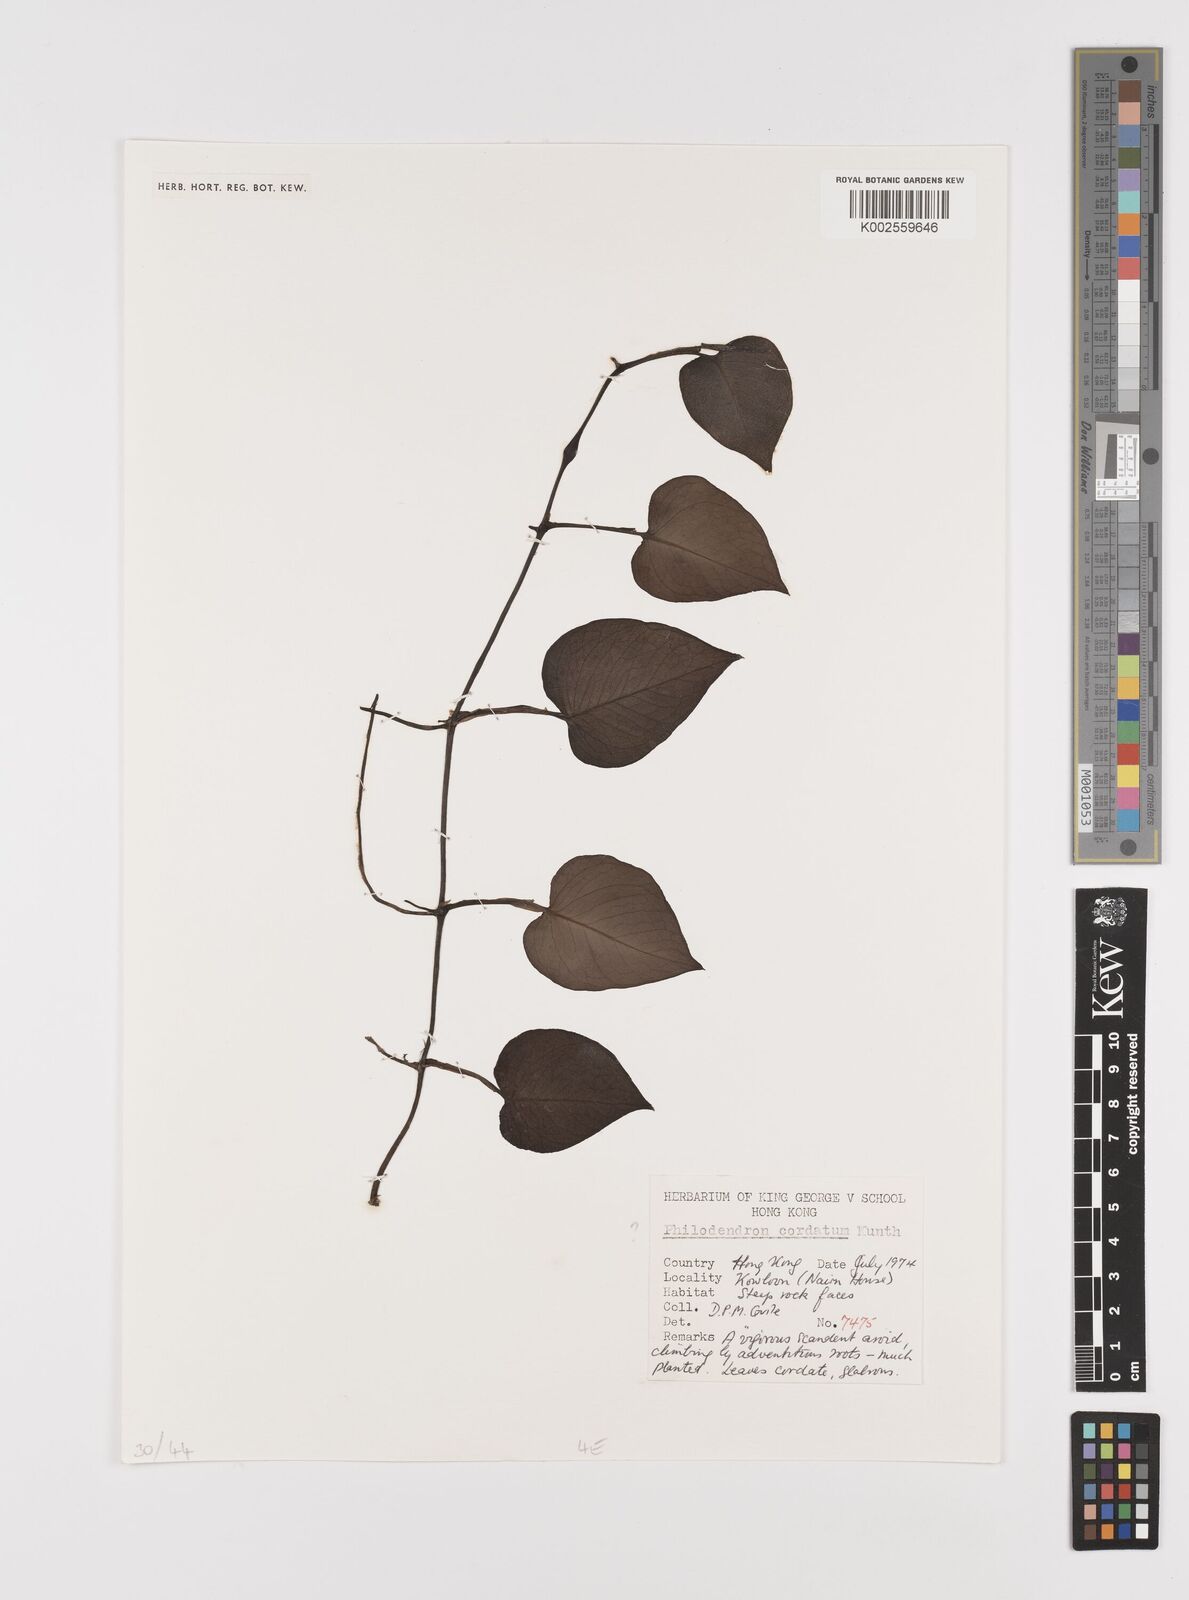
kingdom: Plantae
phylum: Tracheophyta
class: Liliopsida
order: Alismatales
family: Araceae
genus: Philodendron
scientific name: Philodendron
